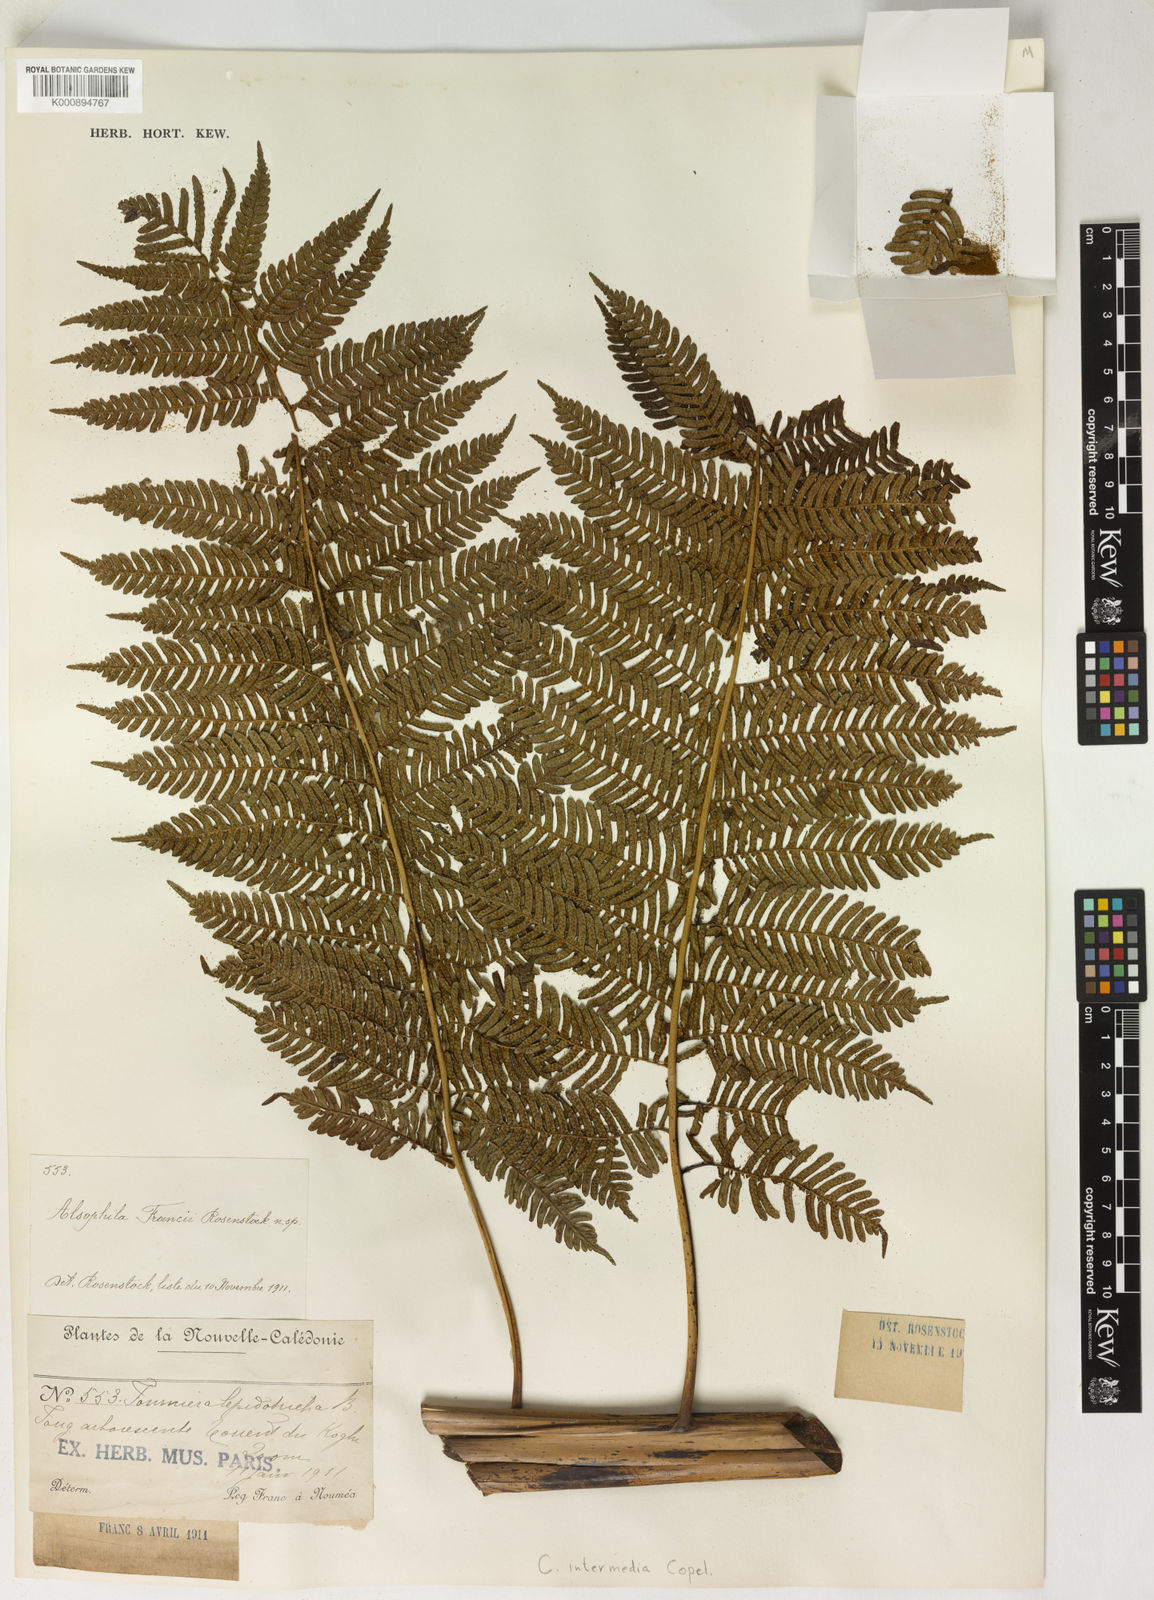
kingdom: Plantae
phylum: Tracheophyta
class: Polypodiopsida
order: Cyatheales
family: Cyatheaceae
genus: Sphaeropteris
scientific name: Sphaeropteris intermedia
